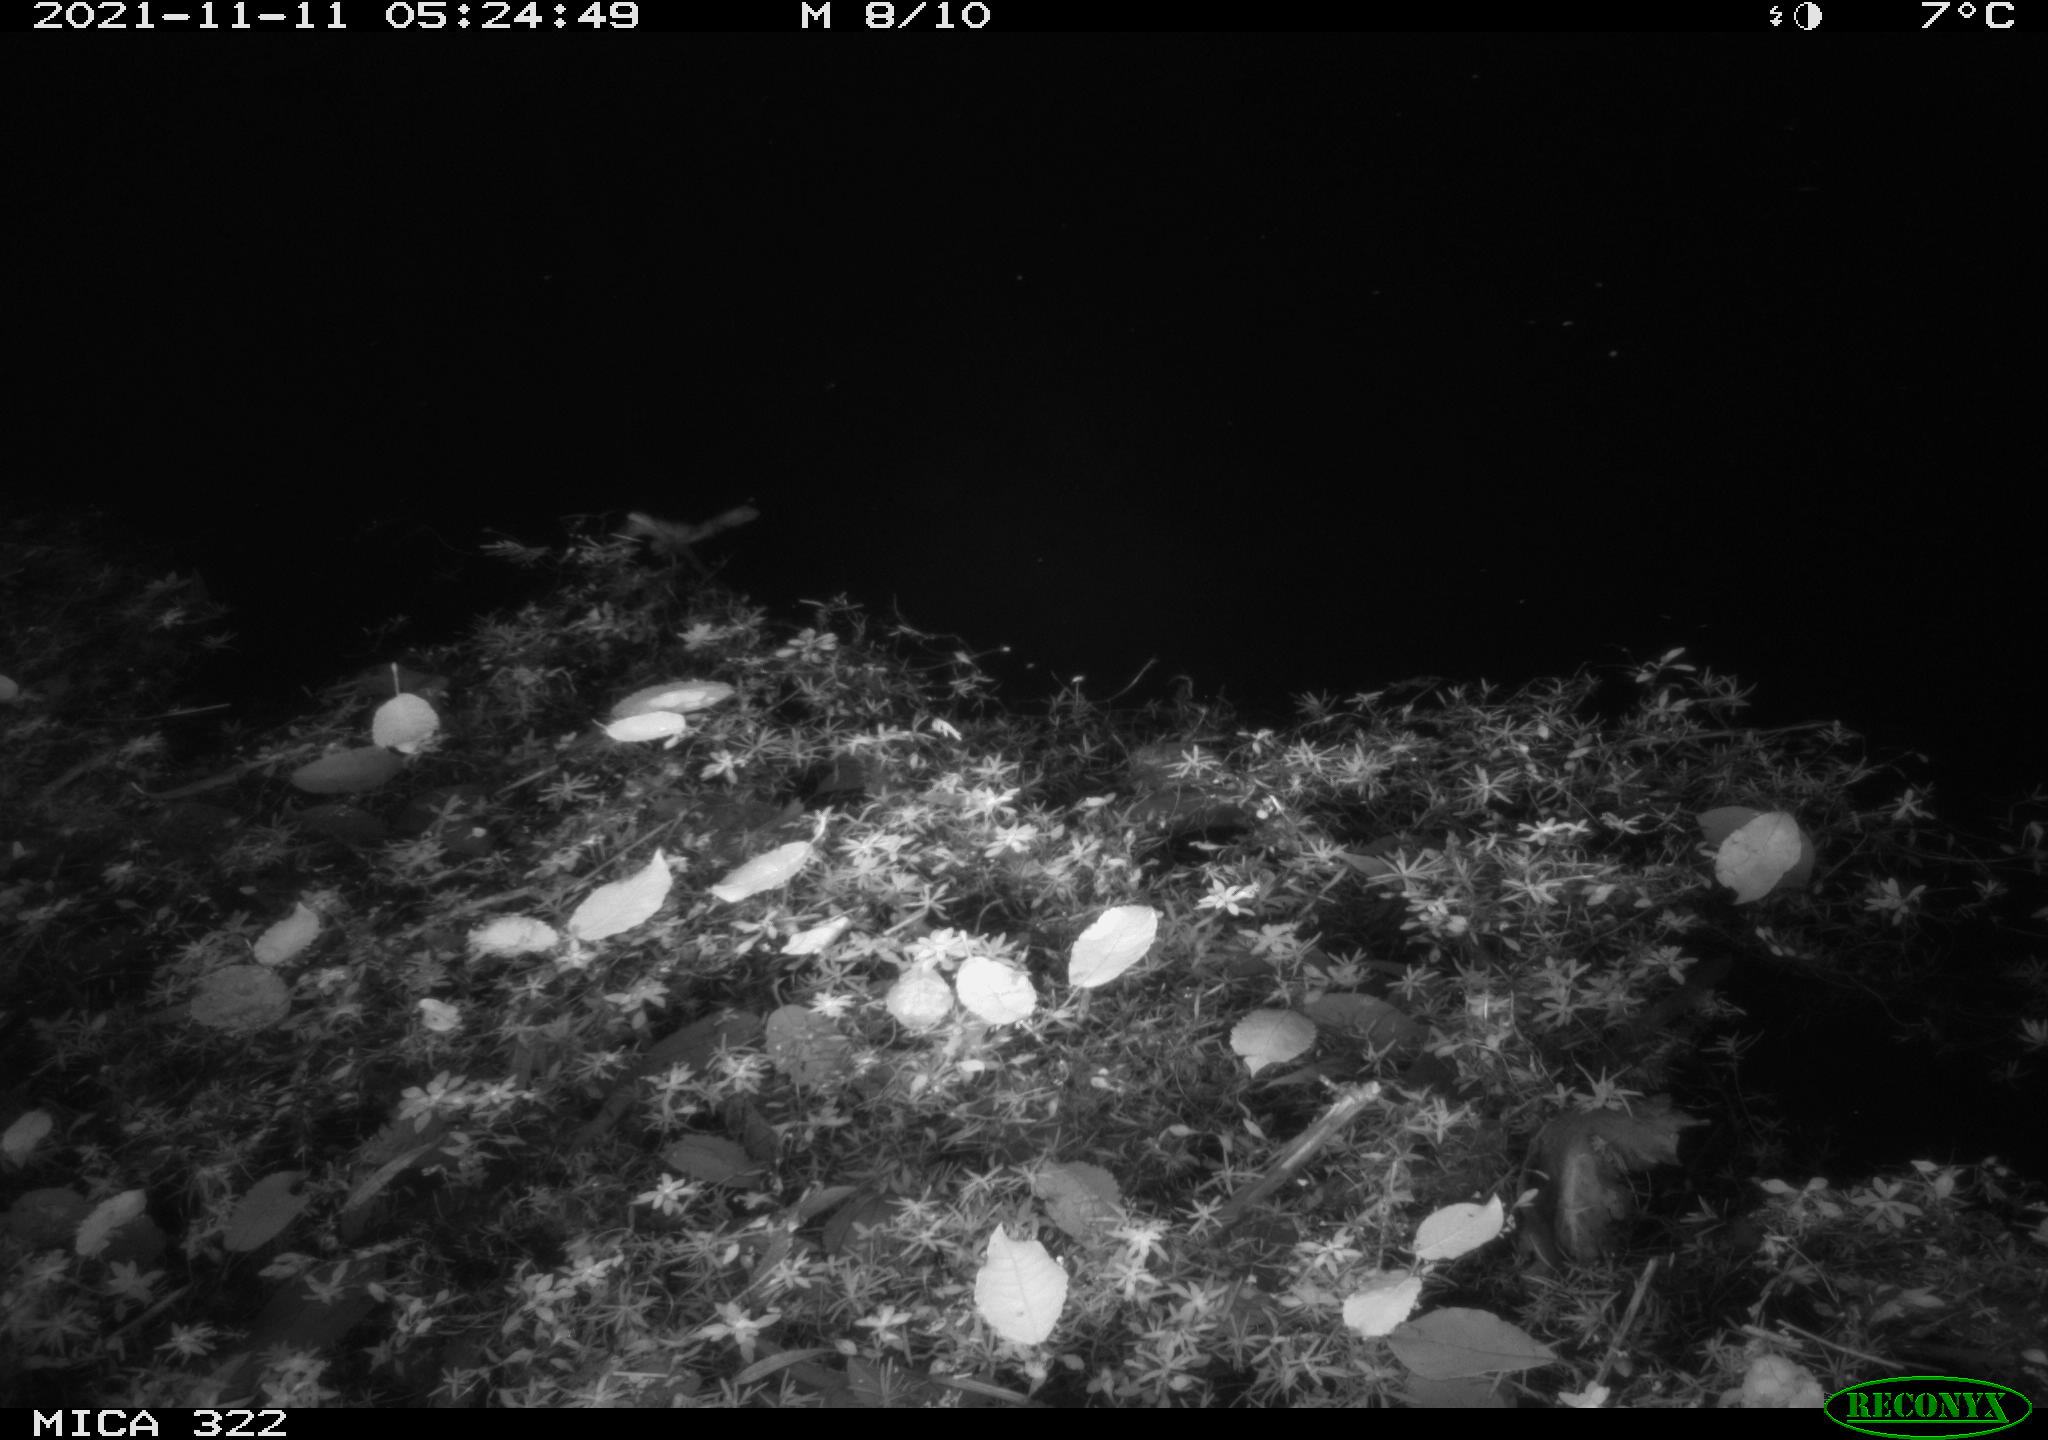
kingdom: Animalia
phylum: Chordata
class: Mammalia
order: Rodentia
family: Muridae
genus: Rattus
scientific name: Rattus norvegicus
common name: Brown rat
